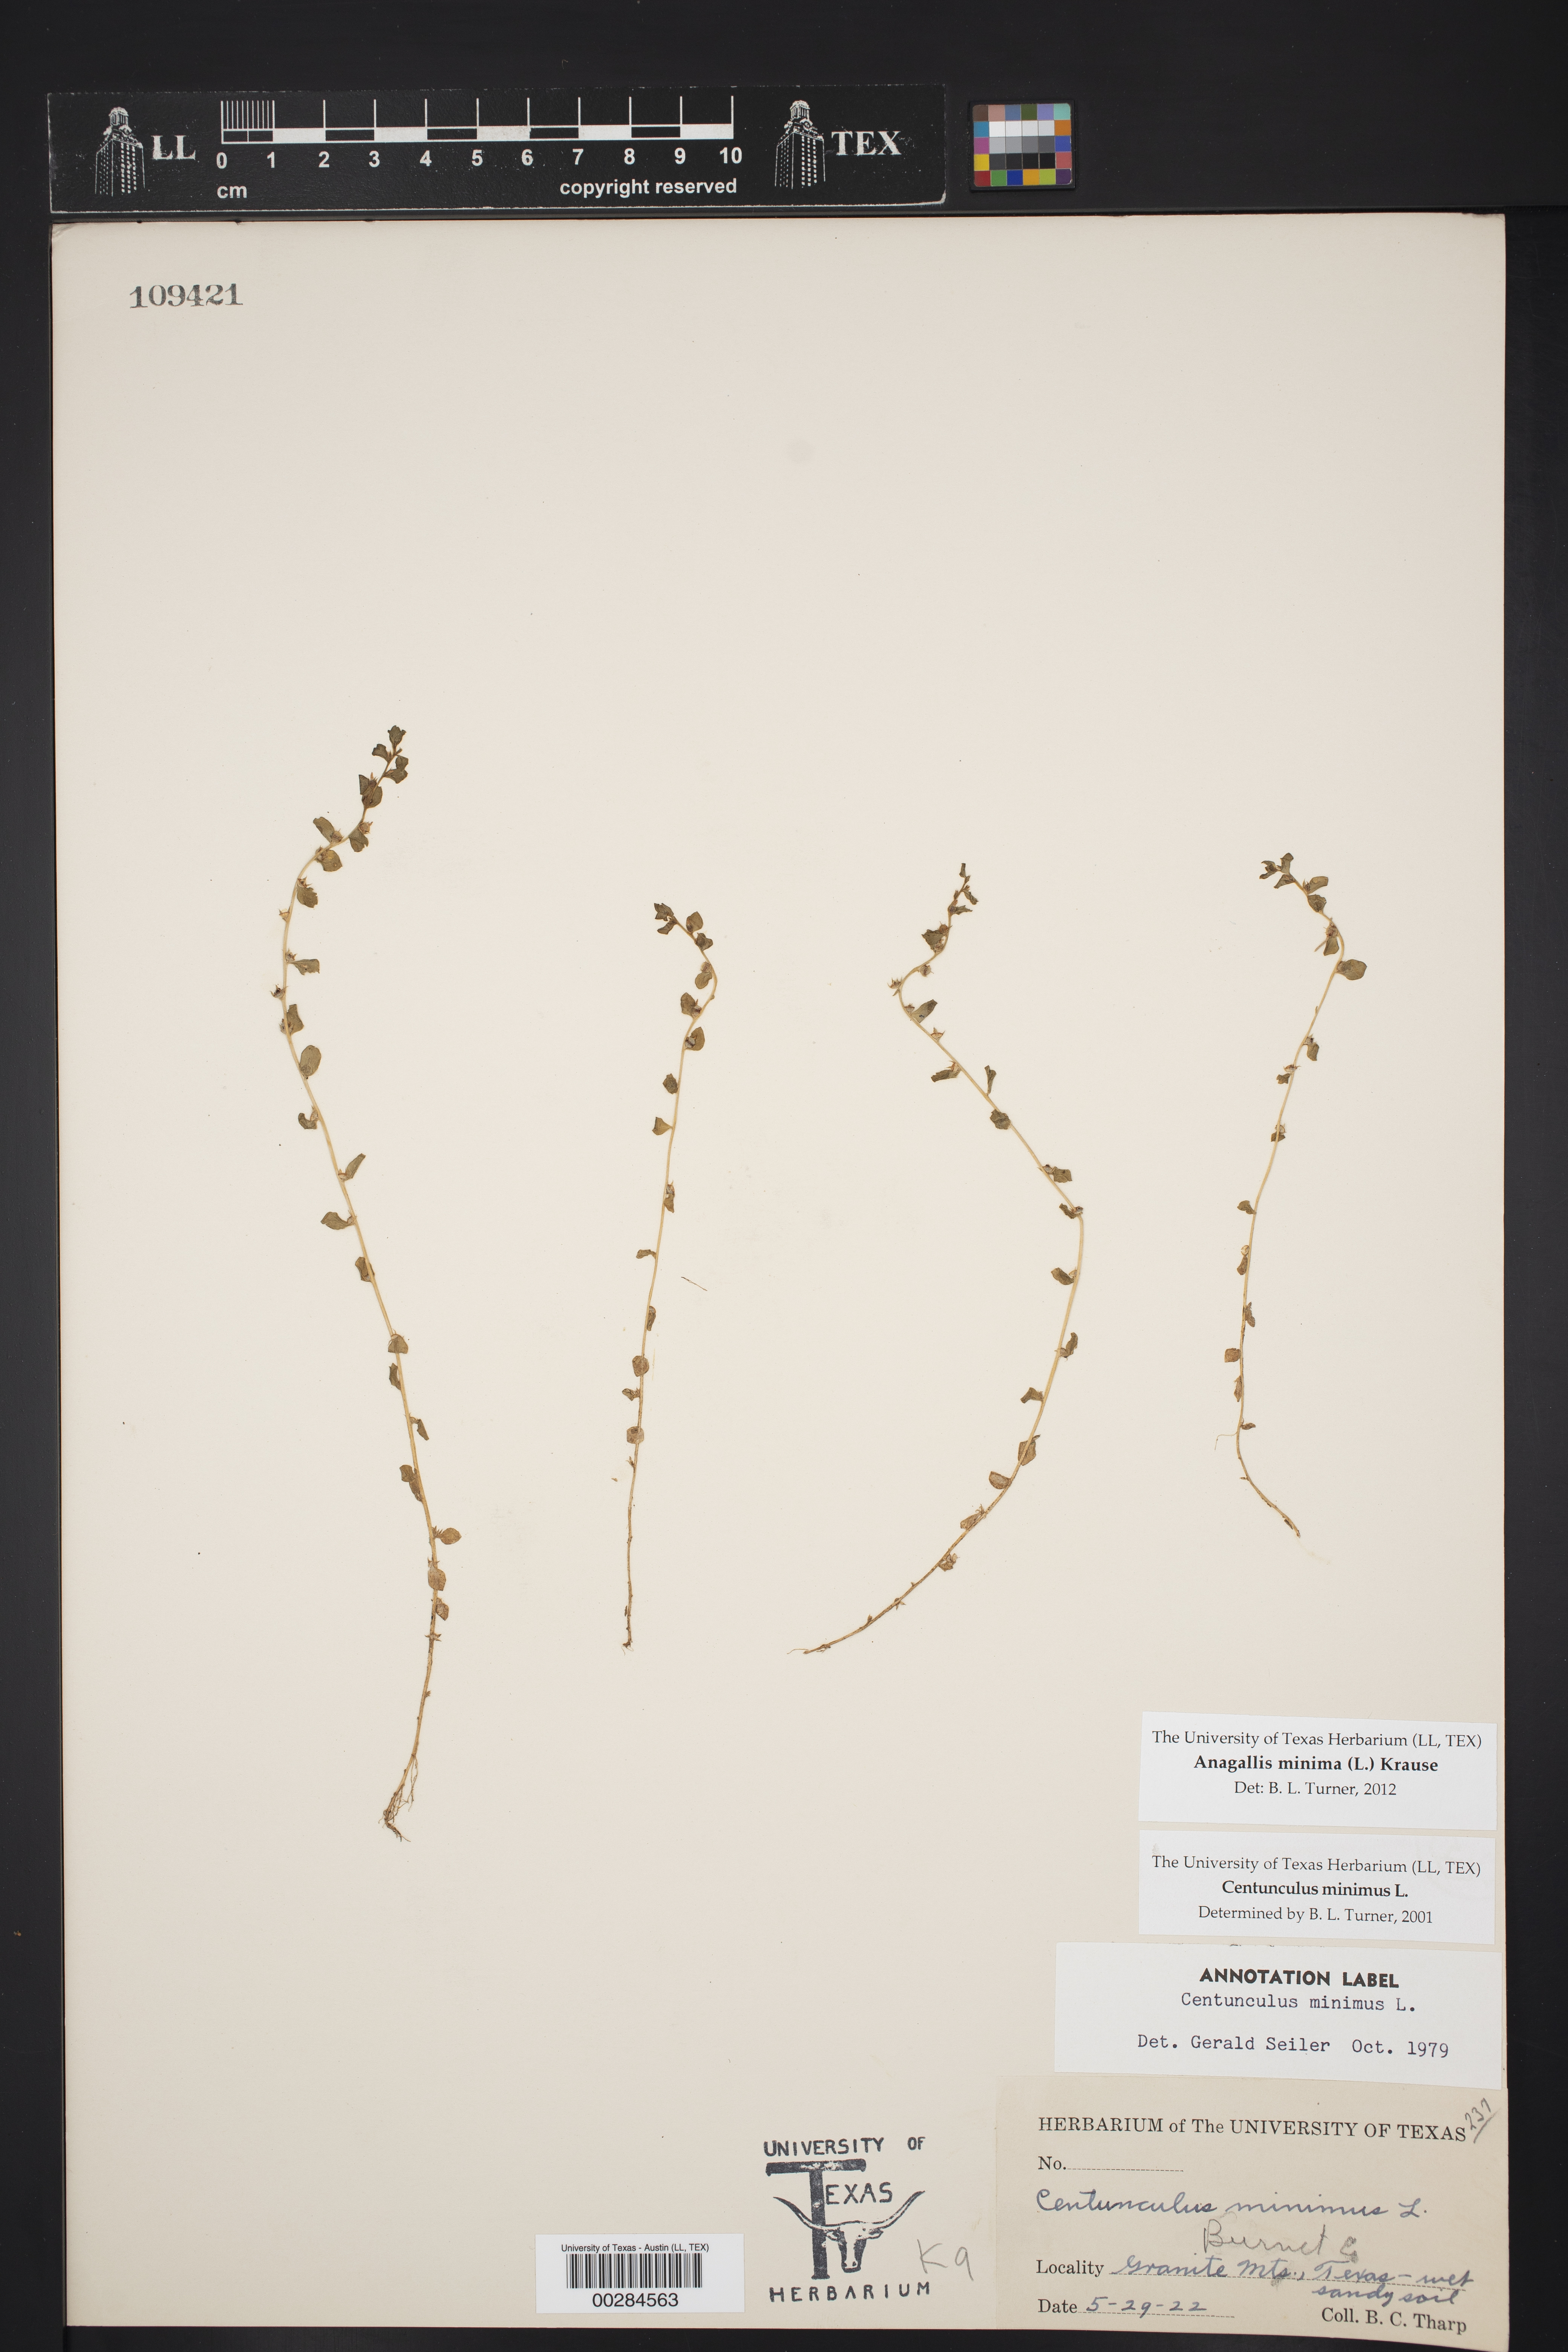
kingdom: Plantae
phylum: Tracheophyta
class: Magnoliopsida
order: Ericales
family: Primulaceae
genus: Lysimachia
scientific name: Lysimachia minima
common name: Chaffweed
